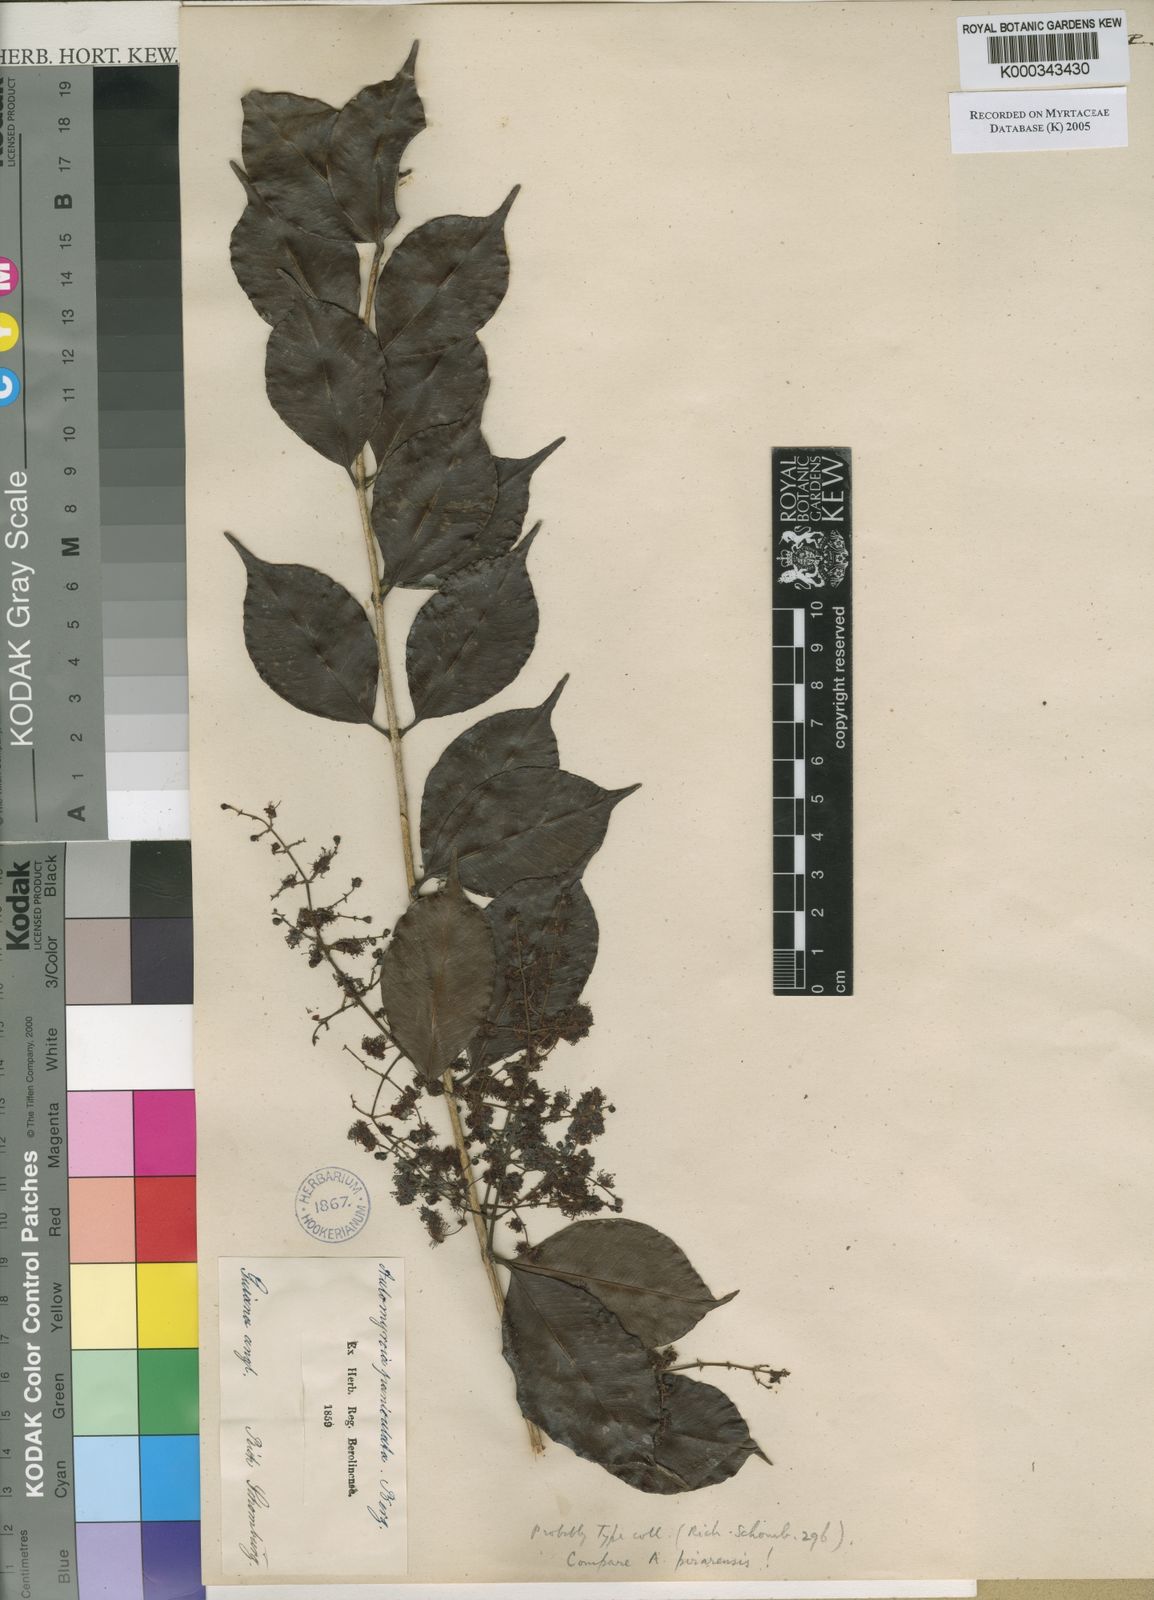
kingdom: Plantae
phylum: Tracheophyta
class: Magnoliopsida
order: Myrtales
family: Myrtaceae
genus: Myrcia
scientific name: Myrcia
